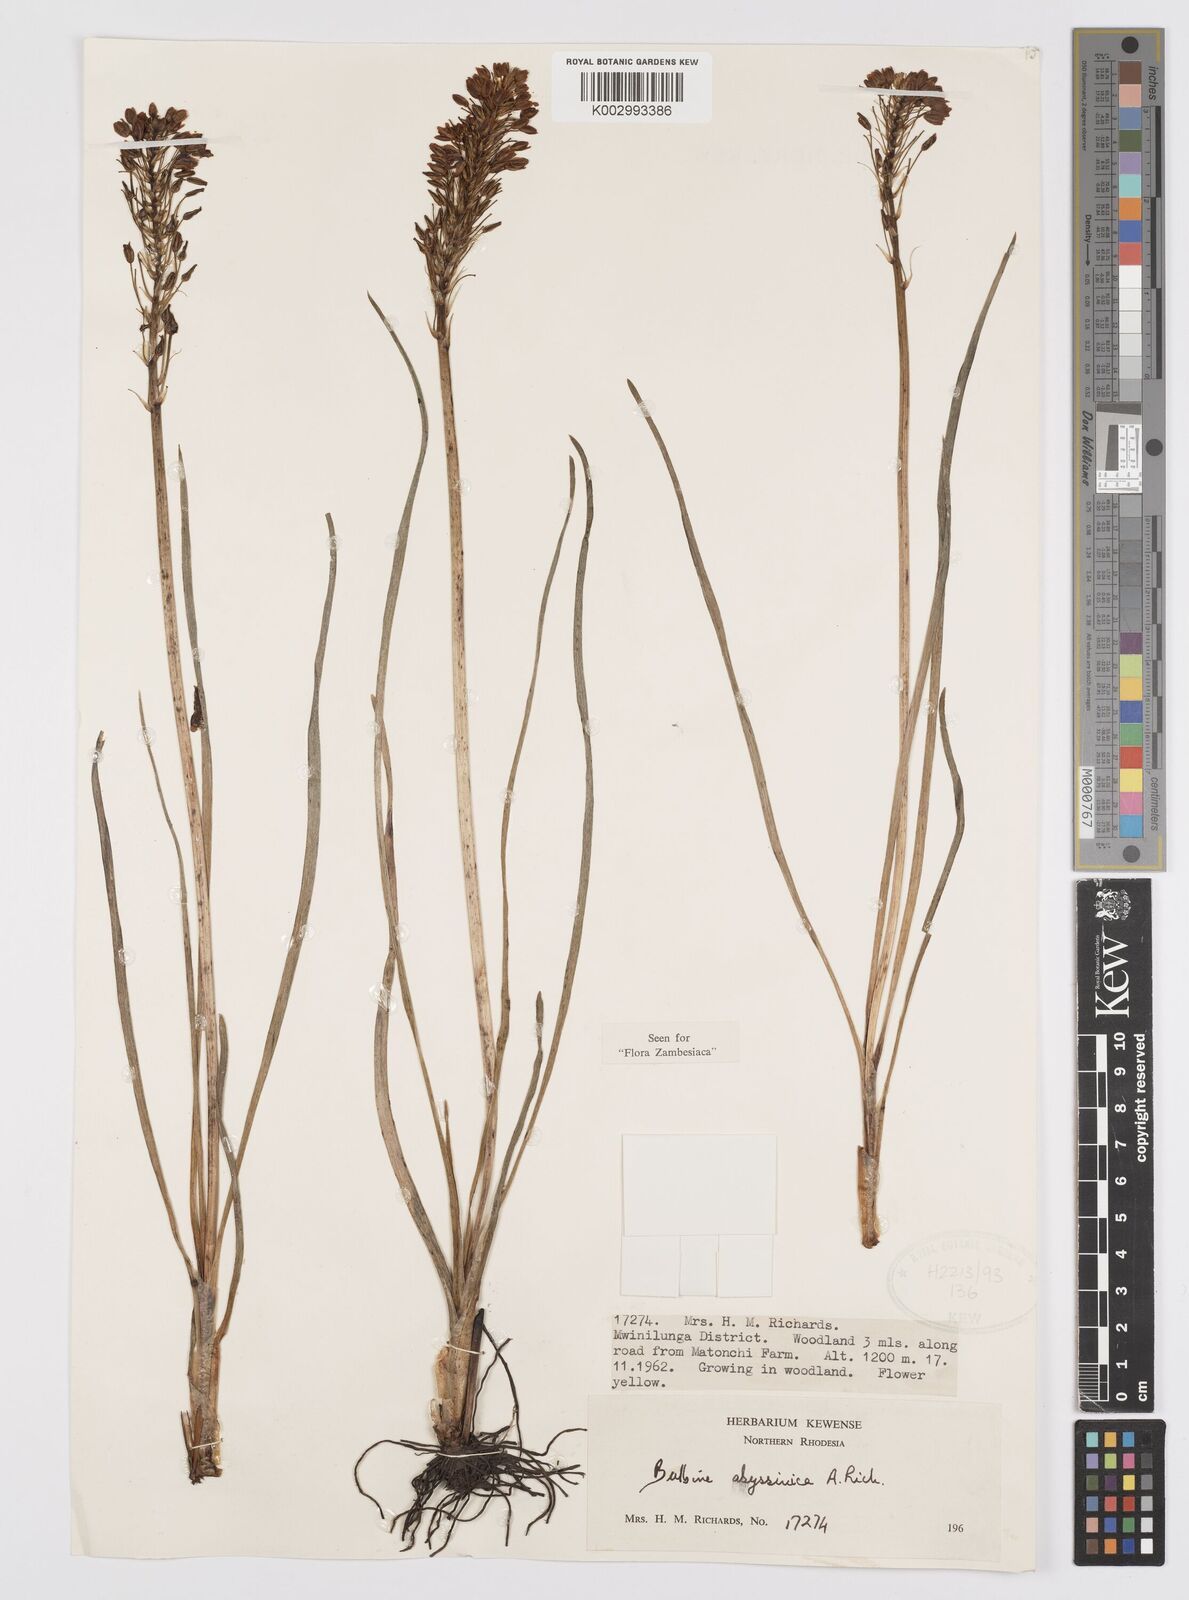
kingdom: Plantae
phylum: Tracheophyta
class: Liliopsida
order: Asparagales
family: Asphodelaceae
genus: Bulbine
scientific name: Bulbine abyssinica
